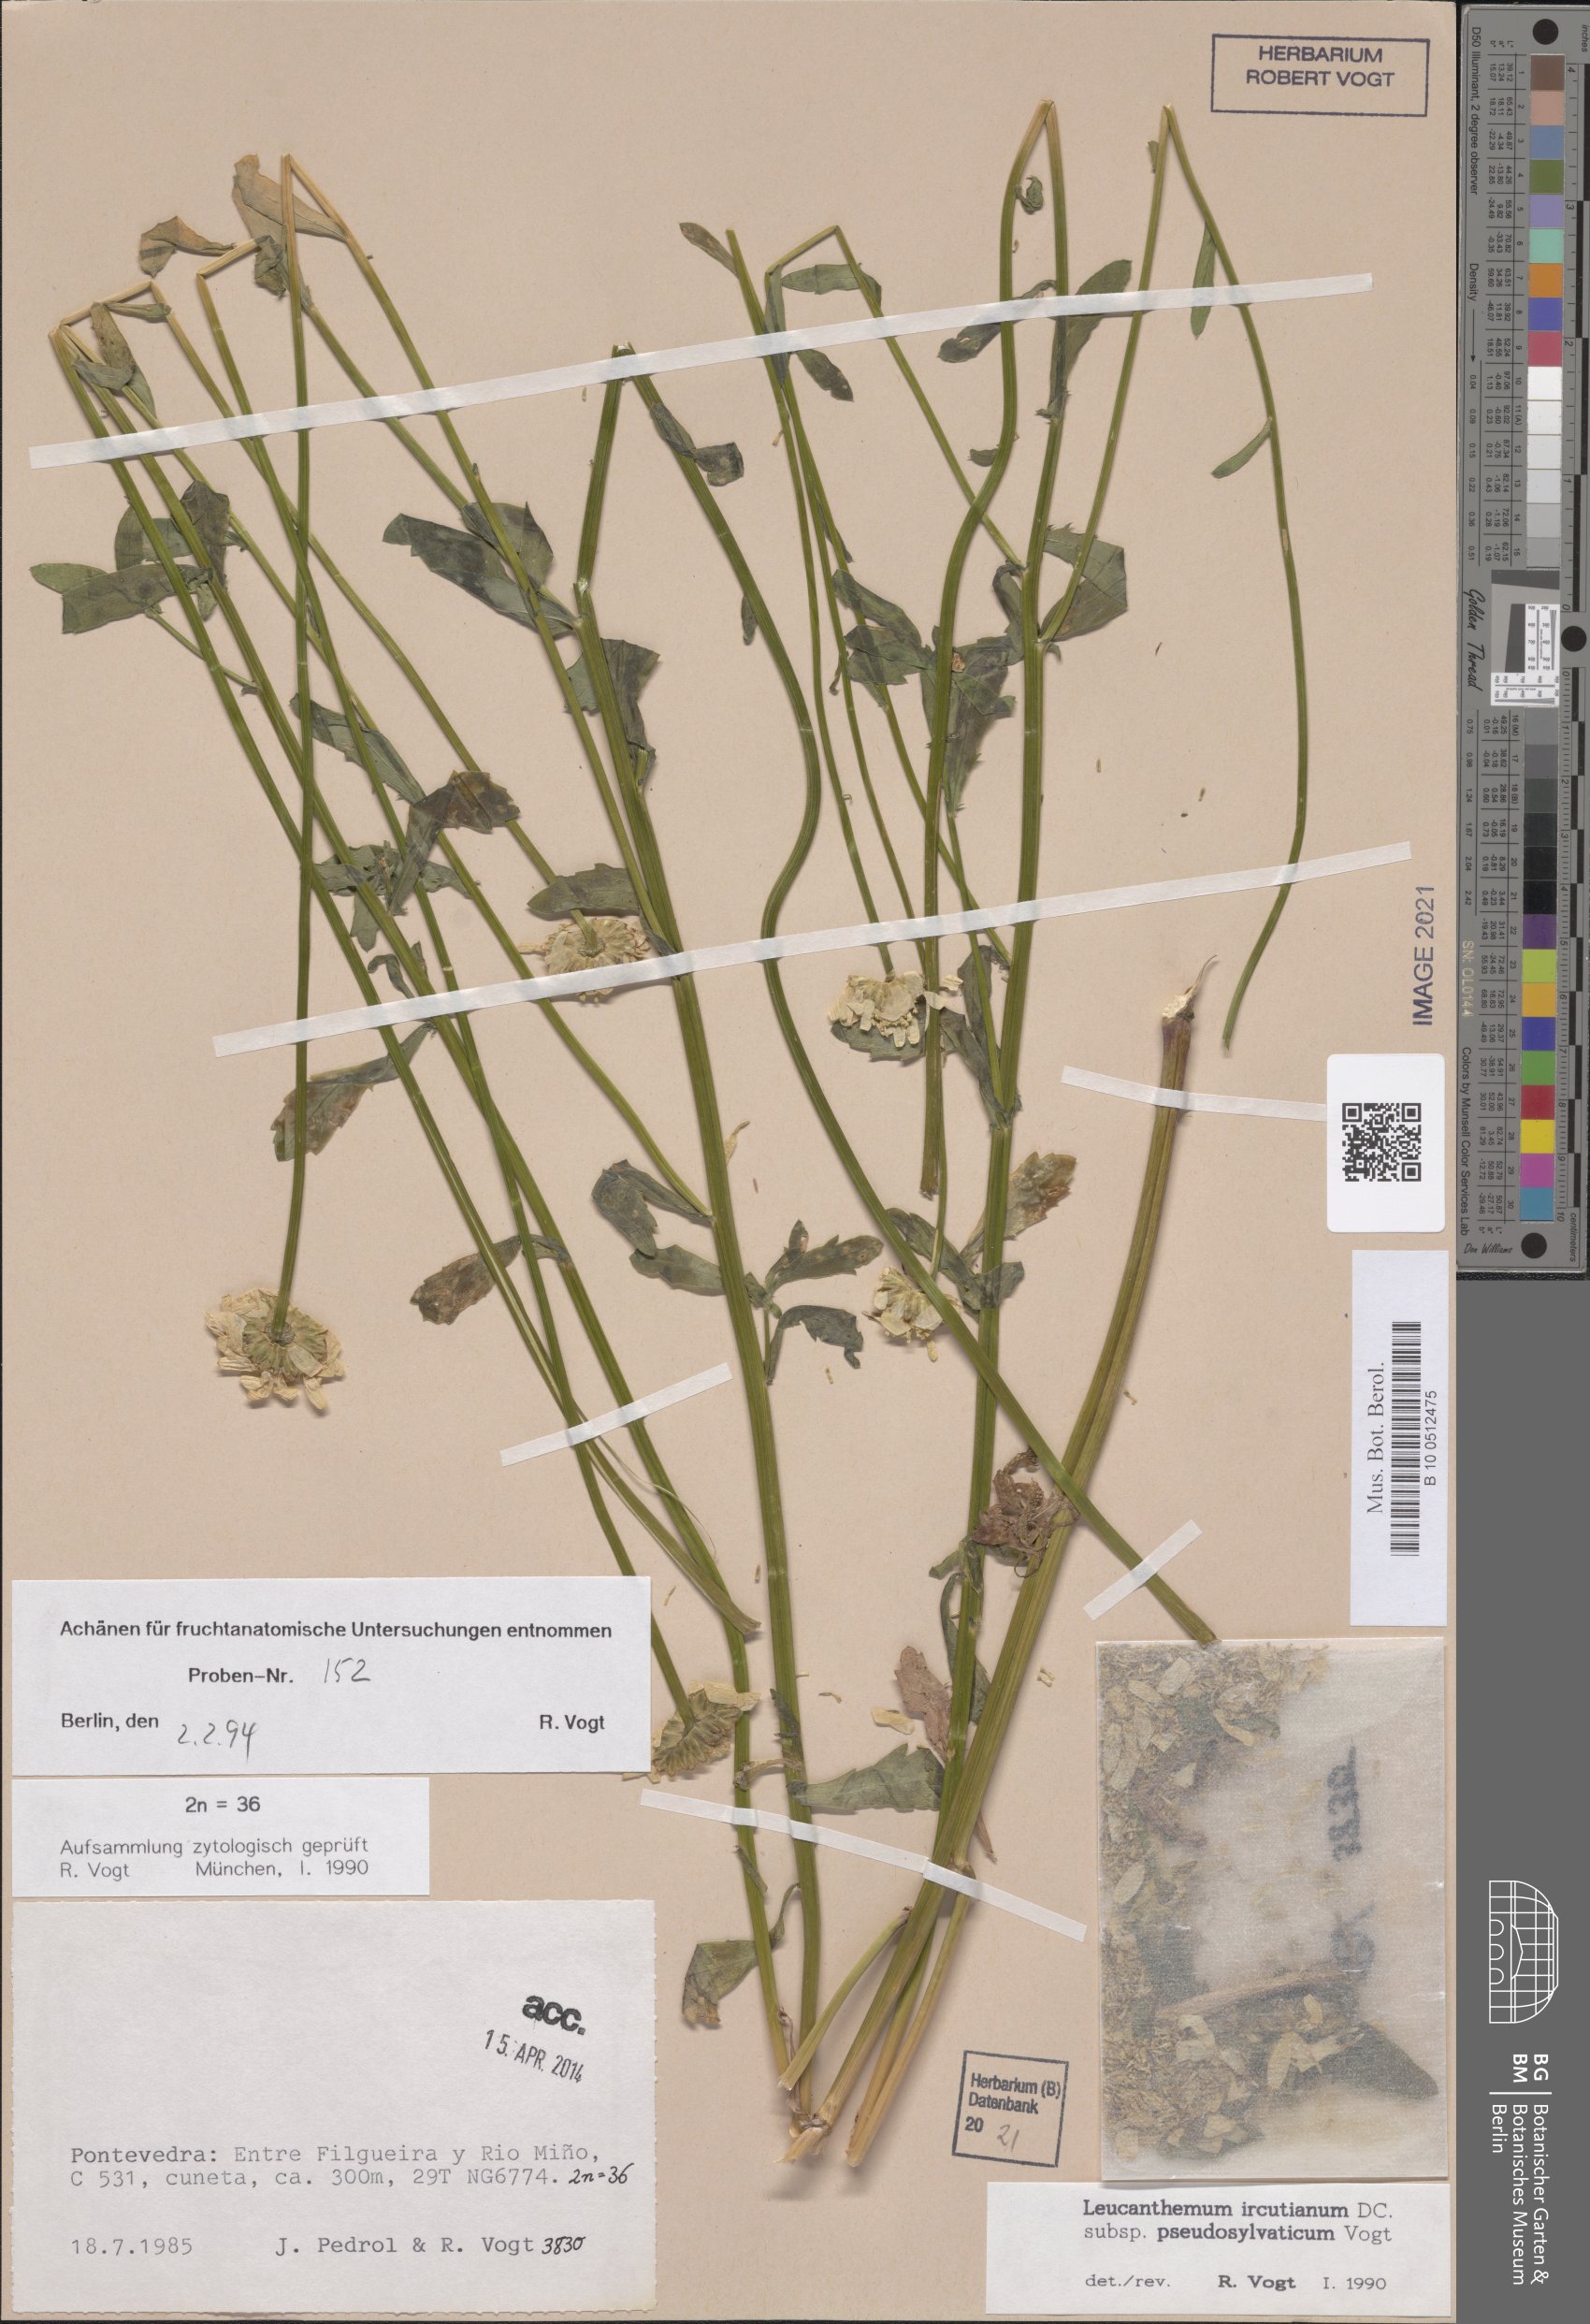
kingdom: Plantae
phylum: Tracheophyta
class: Magnoliopsida
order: Asterales
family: Asteraceae
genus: Leucanthemum
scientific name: Leucanthemum pseudosylvaticum
